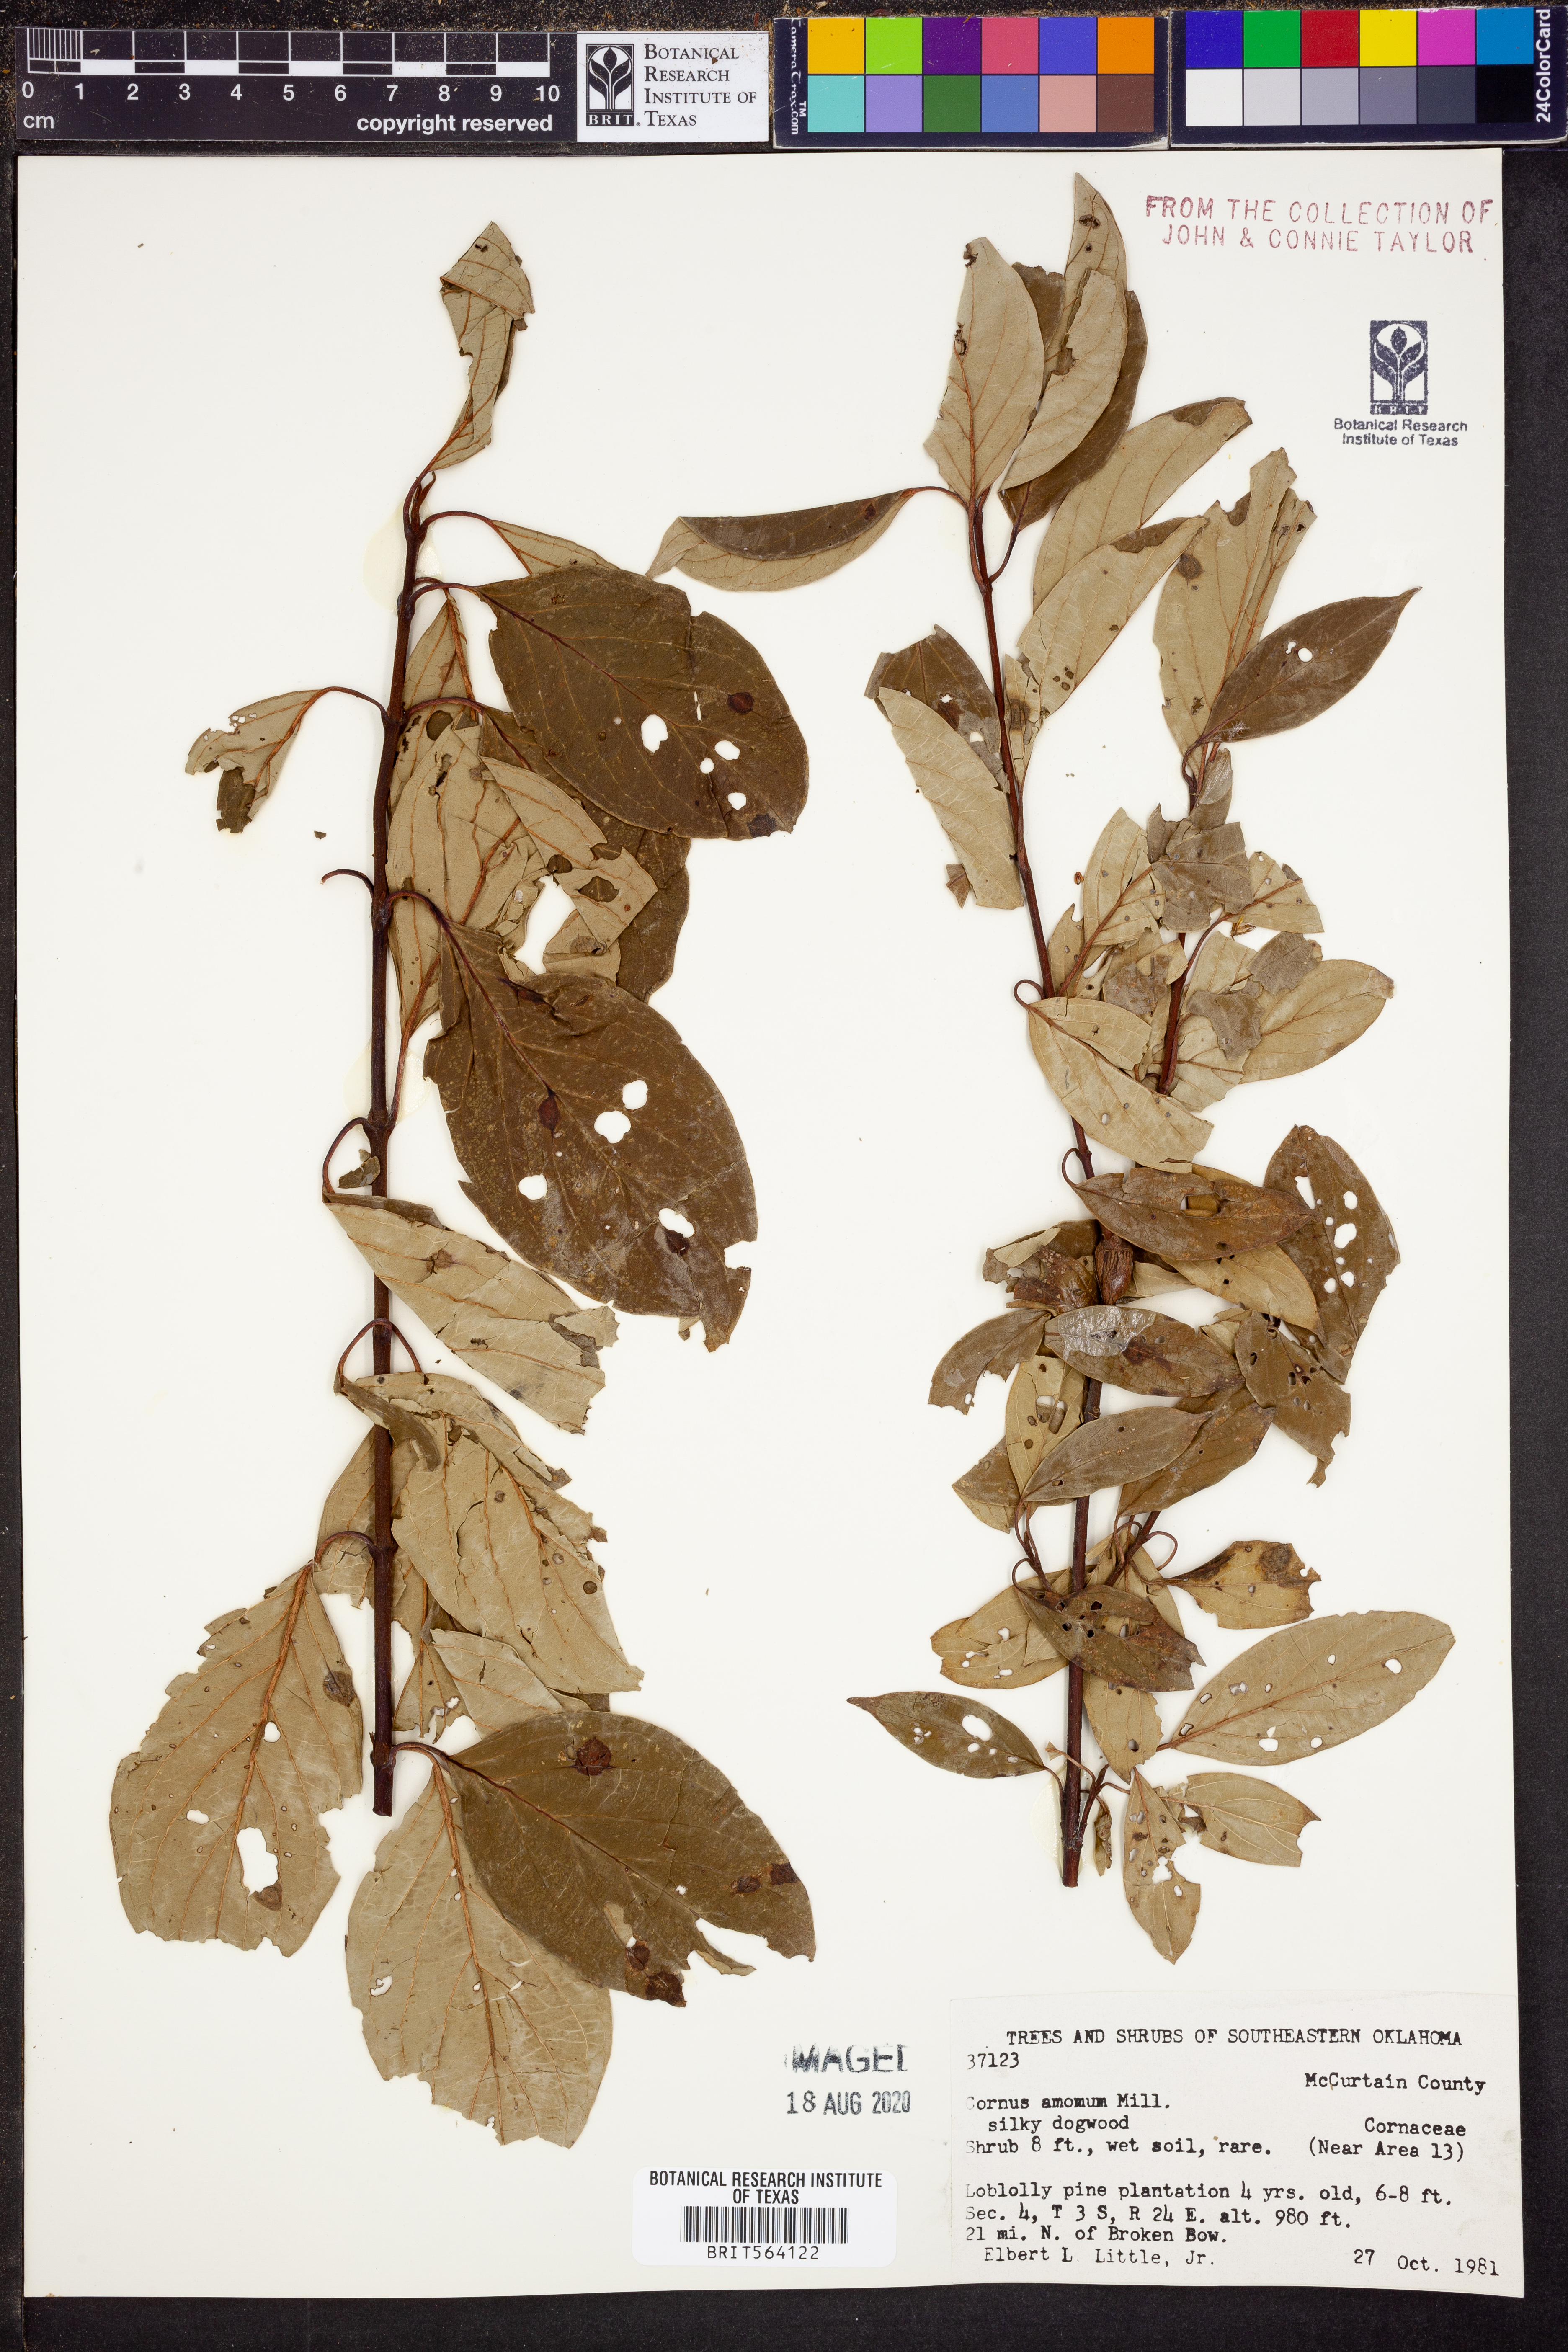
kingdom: Plantae
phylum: Tracheophyta
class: Magnoliopsida
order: Cornales
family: Cornaceae
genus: Cornus
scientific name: Cornus amomum
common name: Silky dogwood
